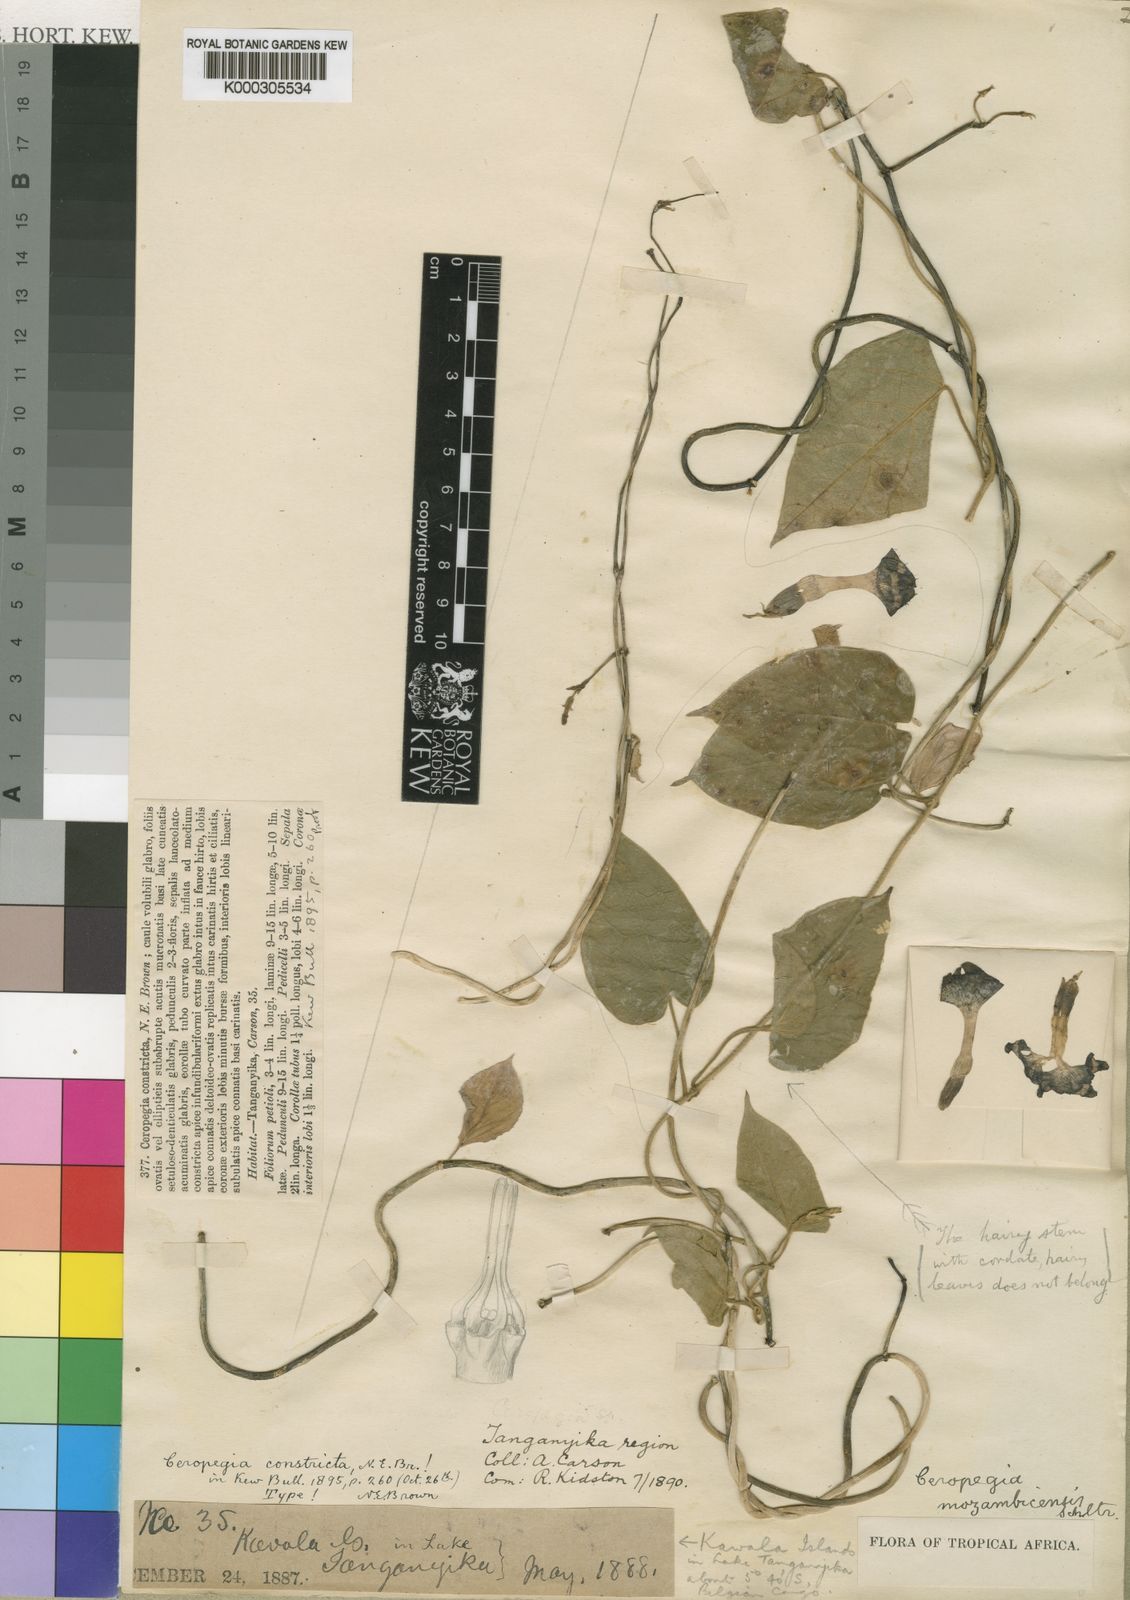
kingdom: Plantae
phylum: Tracheophyta
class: Magnoliopsida
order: Gentianales
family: Apocynaceae
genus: Ceropegia
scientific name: Ceropegia nilotica
